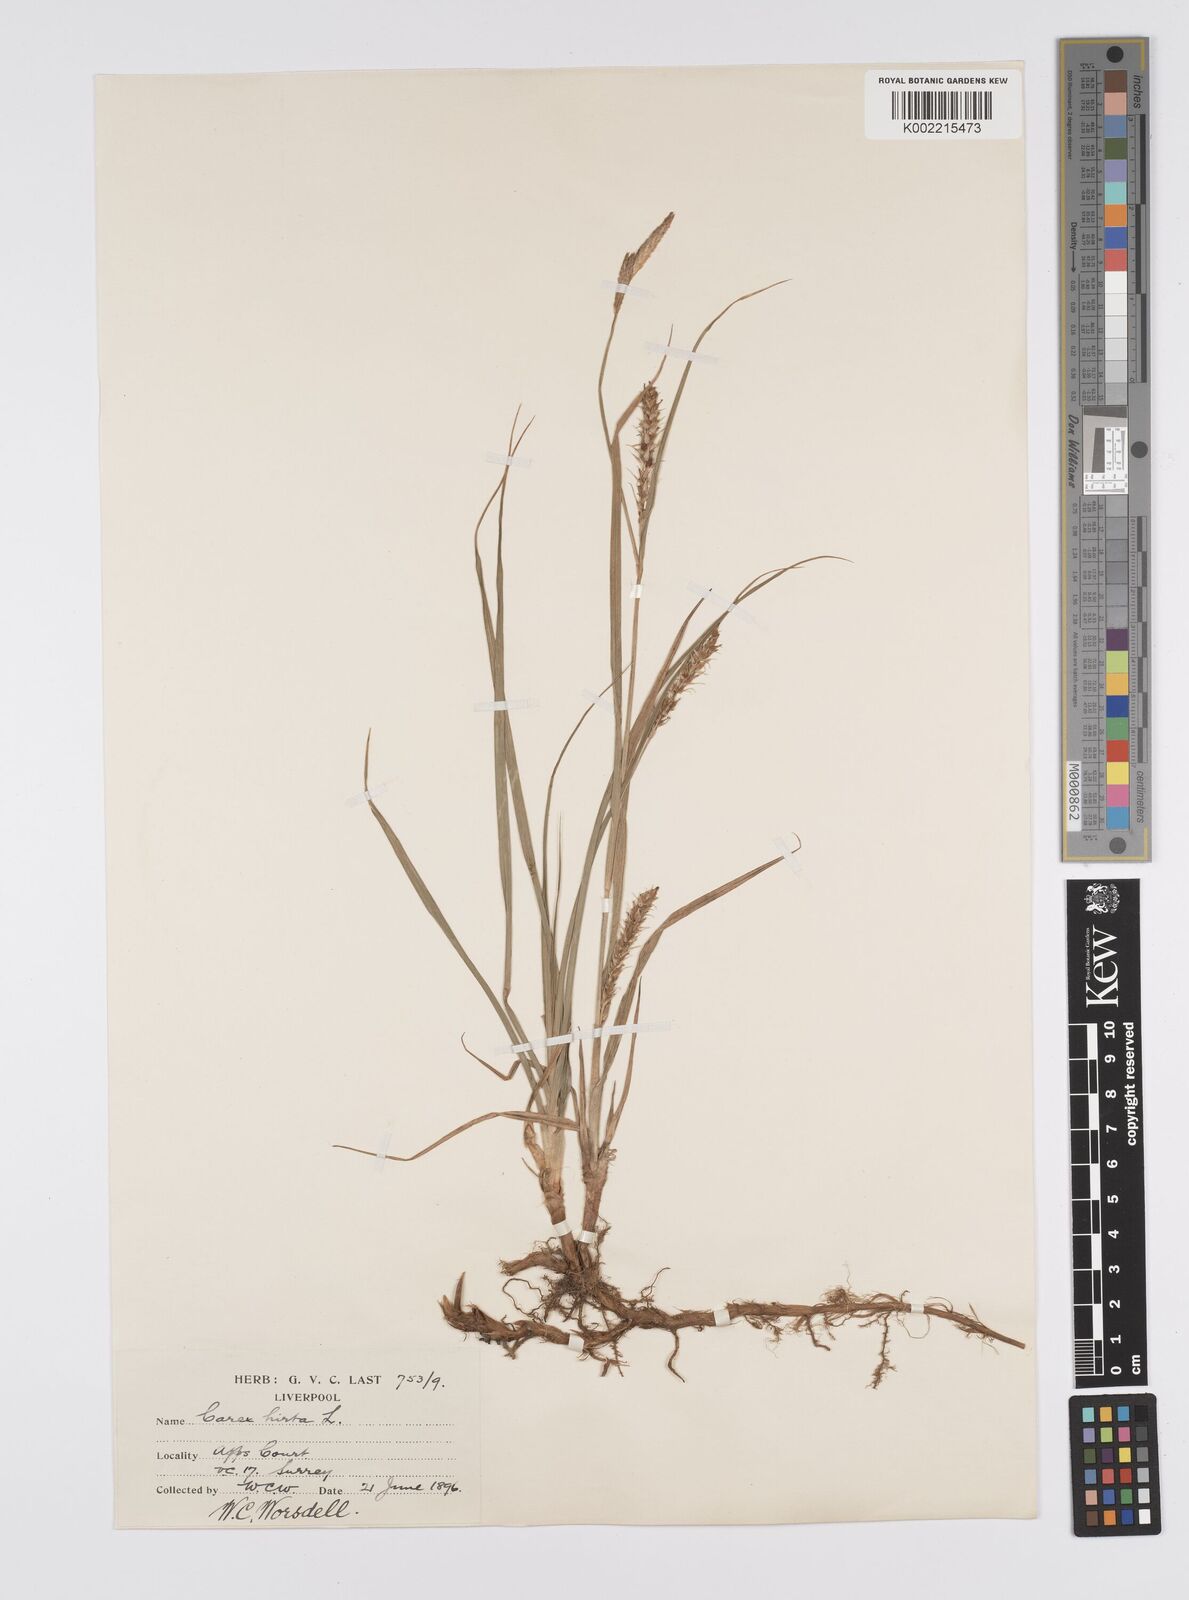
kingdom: Plantae
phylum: Tracheophyta
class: Liliopsida
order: Poales
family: Cyperaceae
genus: Carex
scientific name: Carex hirta
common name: Hairy sedge
